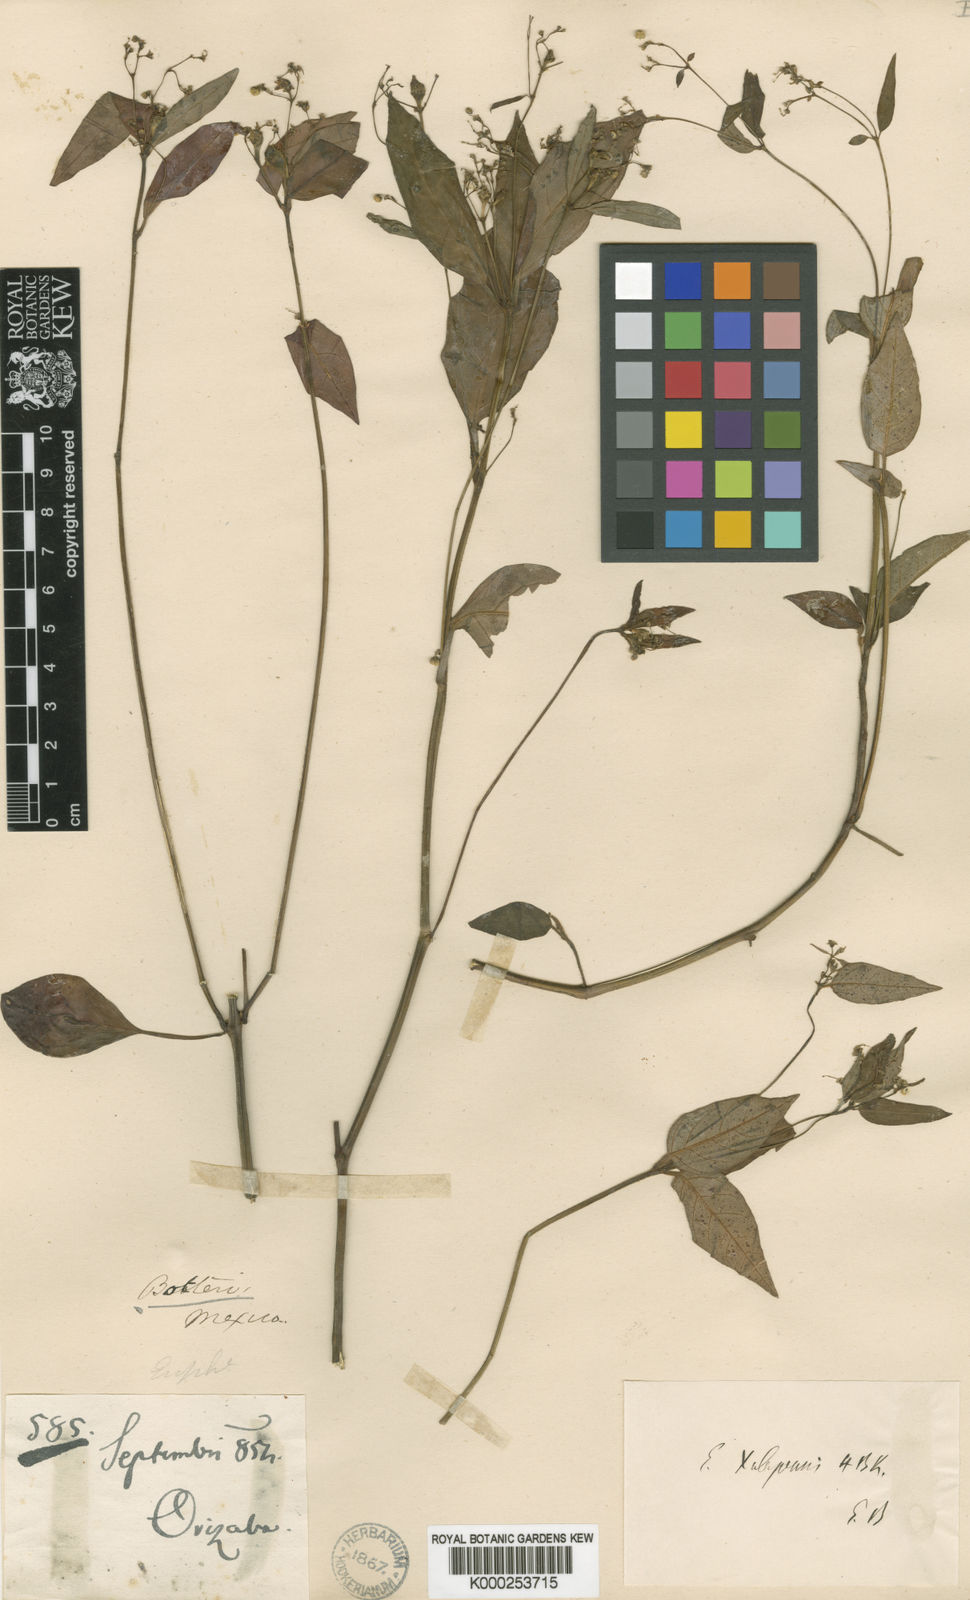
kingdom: Plantae
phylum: Tracheophyta
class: Magnoliopsida
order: Malpighiales
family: Euphorbiaceae
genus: Euphorbia
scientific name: Euphorbia xalapensis
